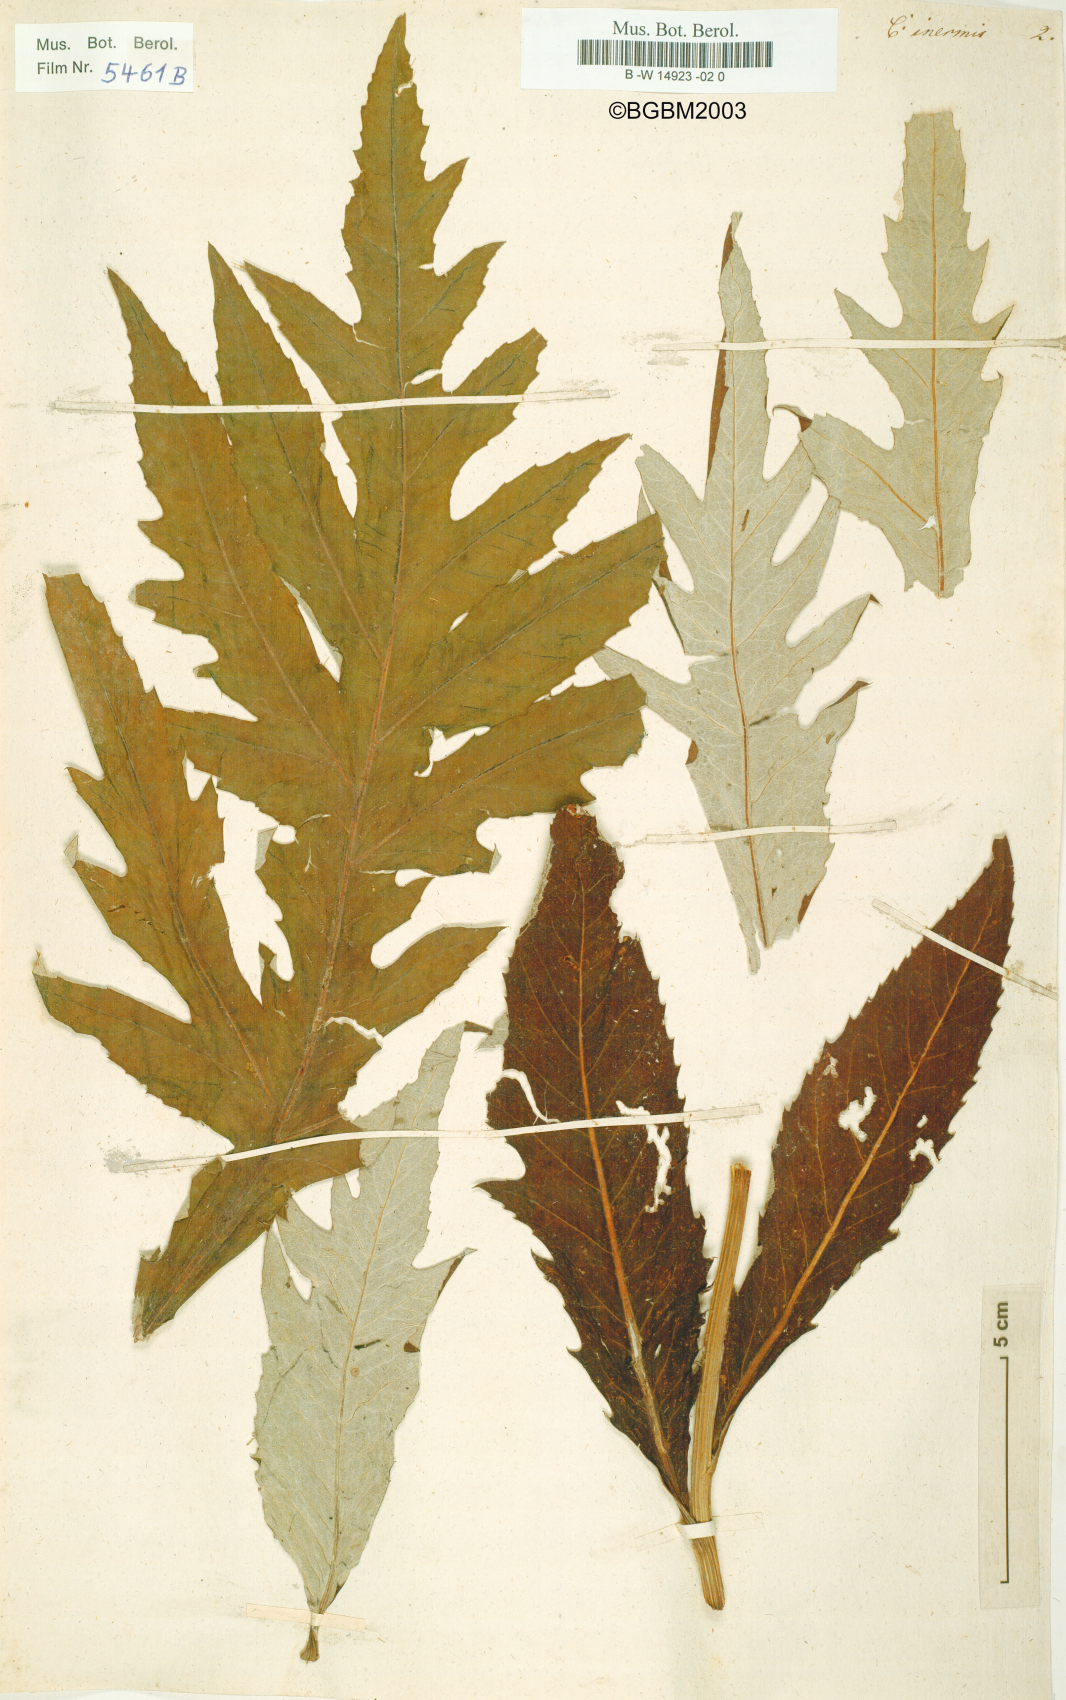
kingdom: Plantae
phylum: Tracheophyta
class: Magnoliopsida
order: Asterales
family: Asteraceae
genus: Leuzea
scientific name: Leuzea centauroides
